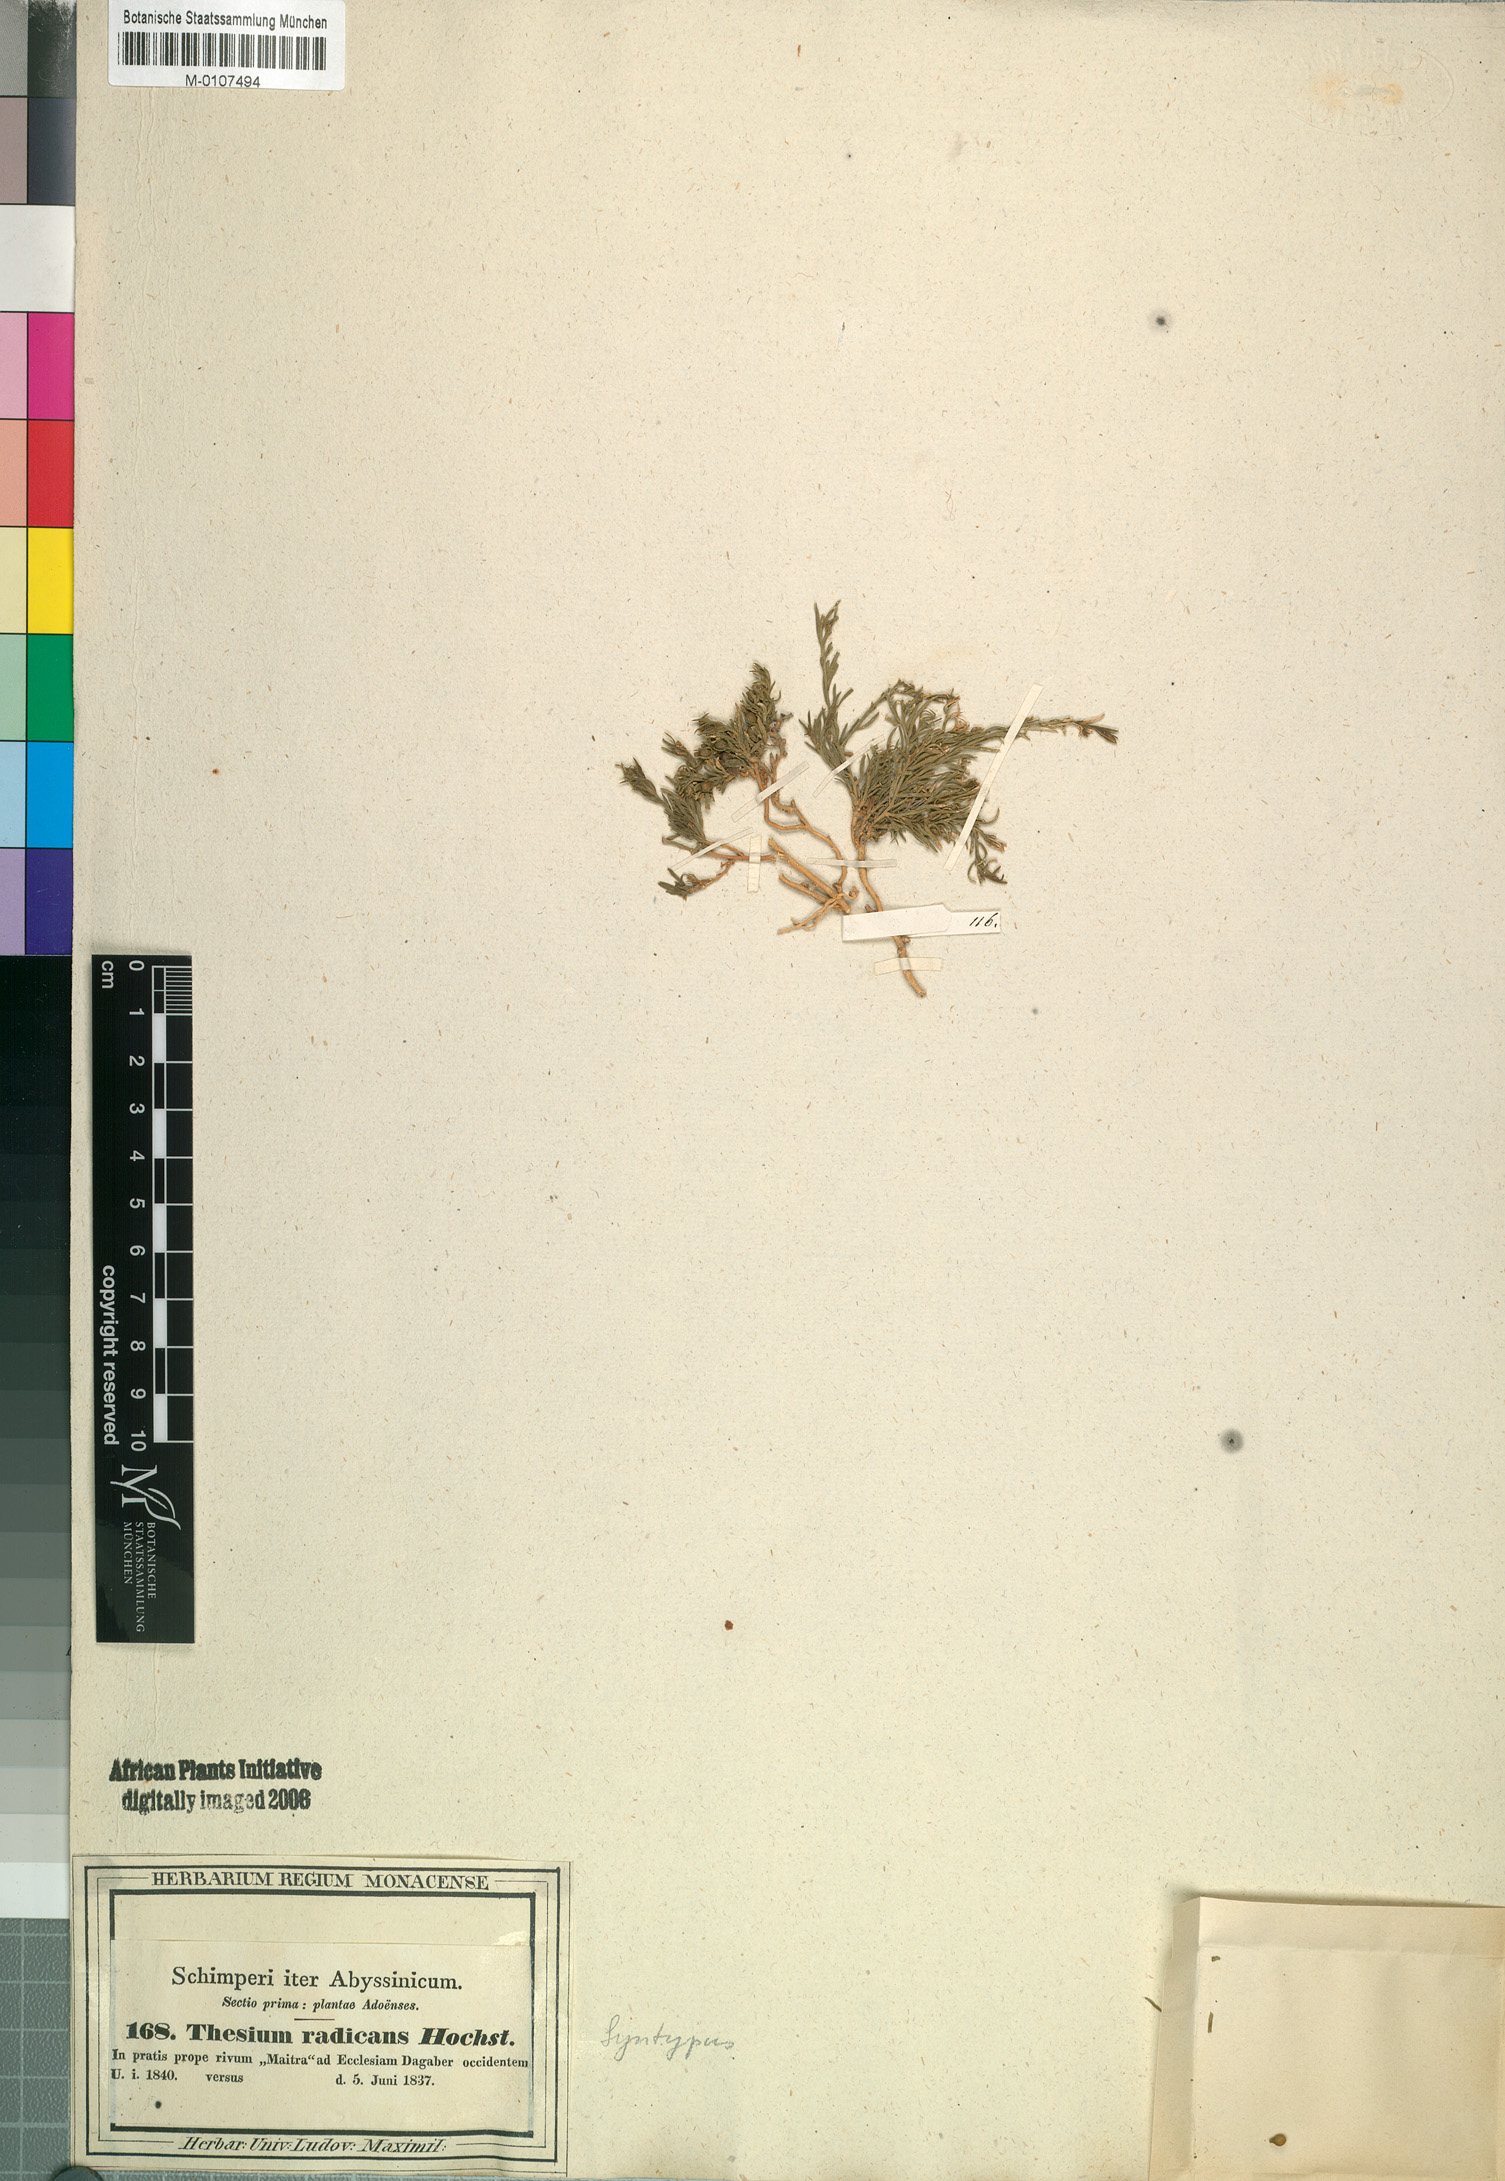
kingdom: Plantae
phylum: Tracheophyta
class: Magnoliopsida
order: Santalales
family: Thesiaceae
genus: Thesium
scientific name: Thesium radicans
